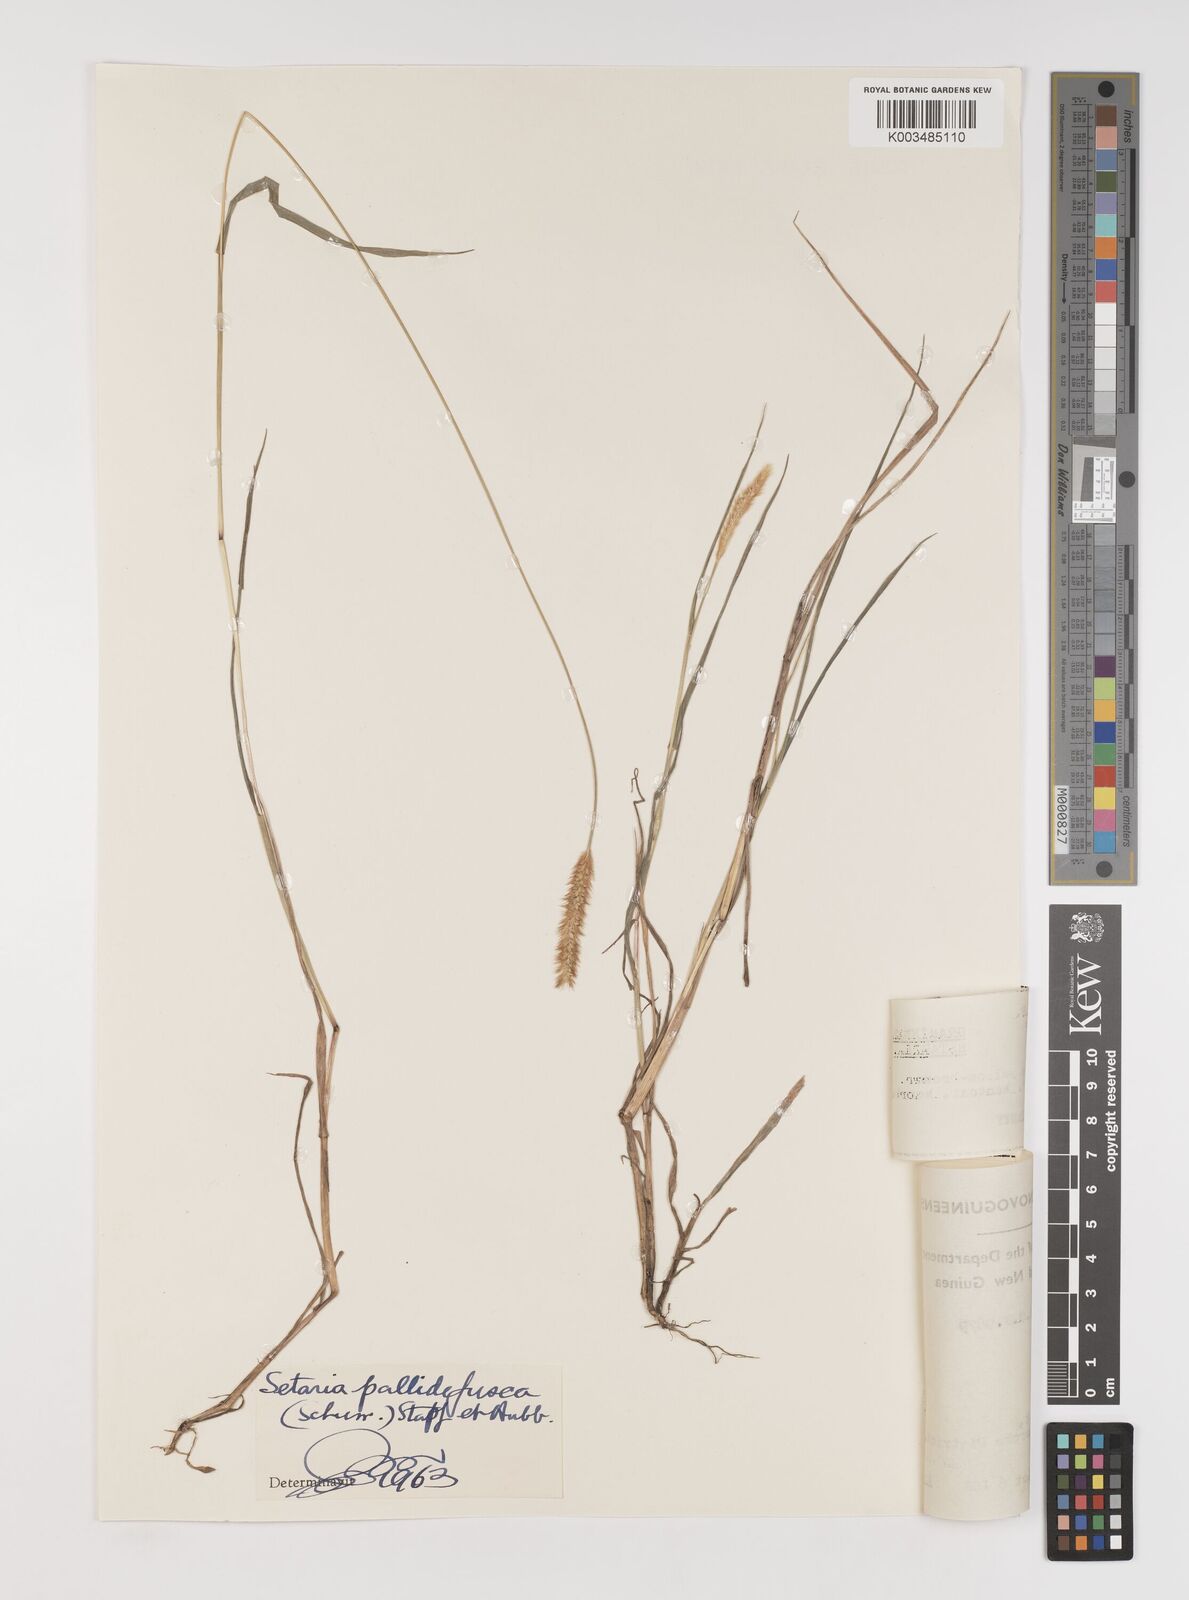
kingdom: Plantae
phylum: Tracheophyta
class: Liliopsida
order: Poales
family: Poaceae
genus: Setaria
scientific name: Setaria parviflora
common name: Knotroot bristle-grass
